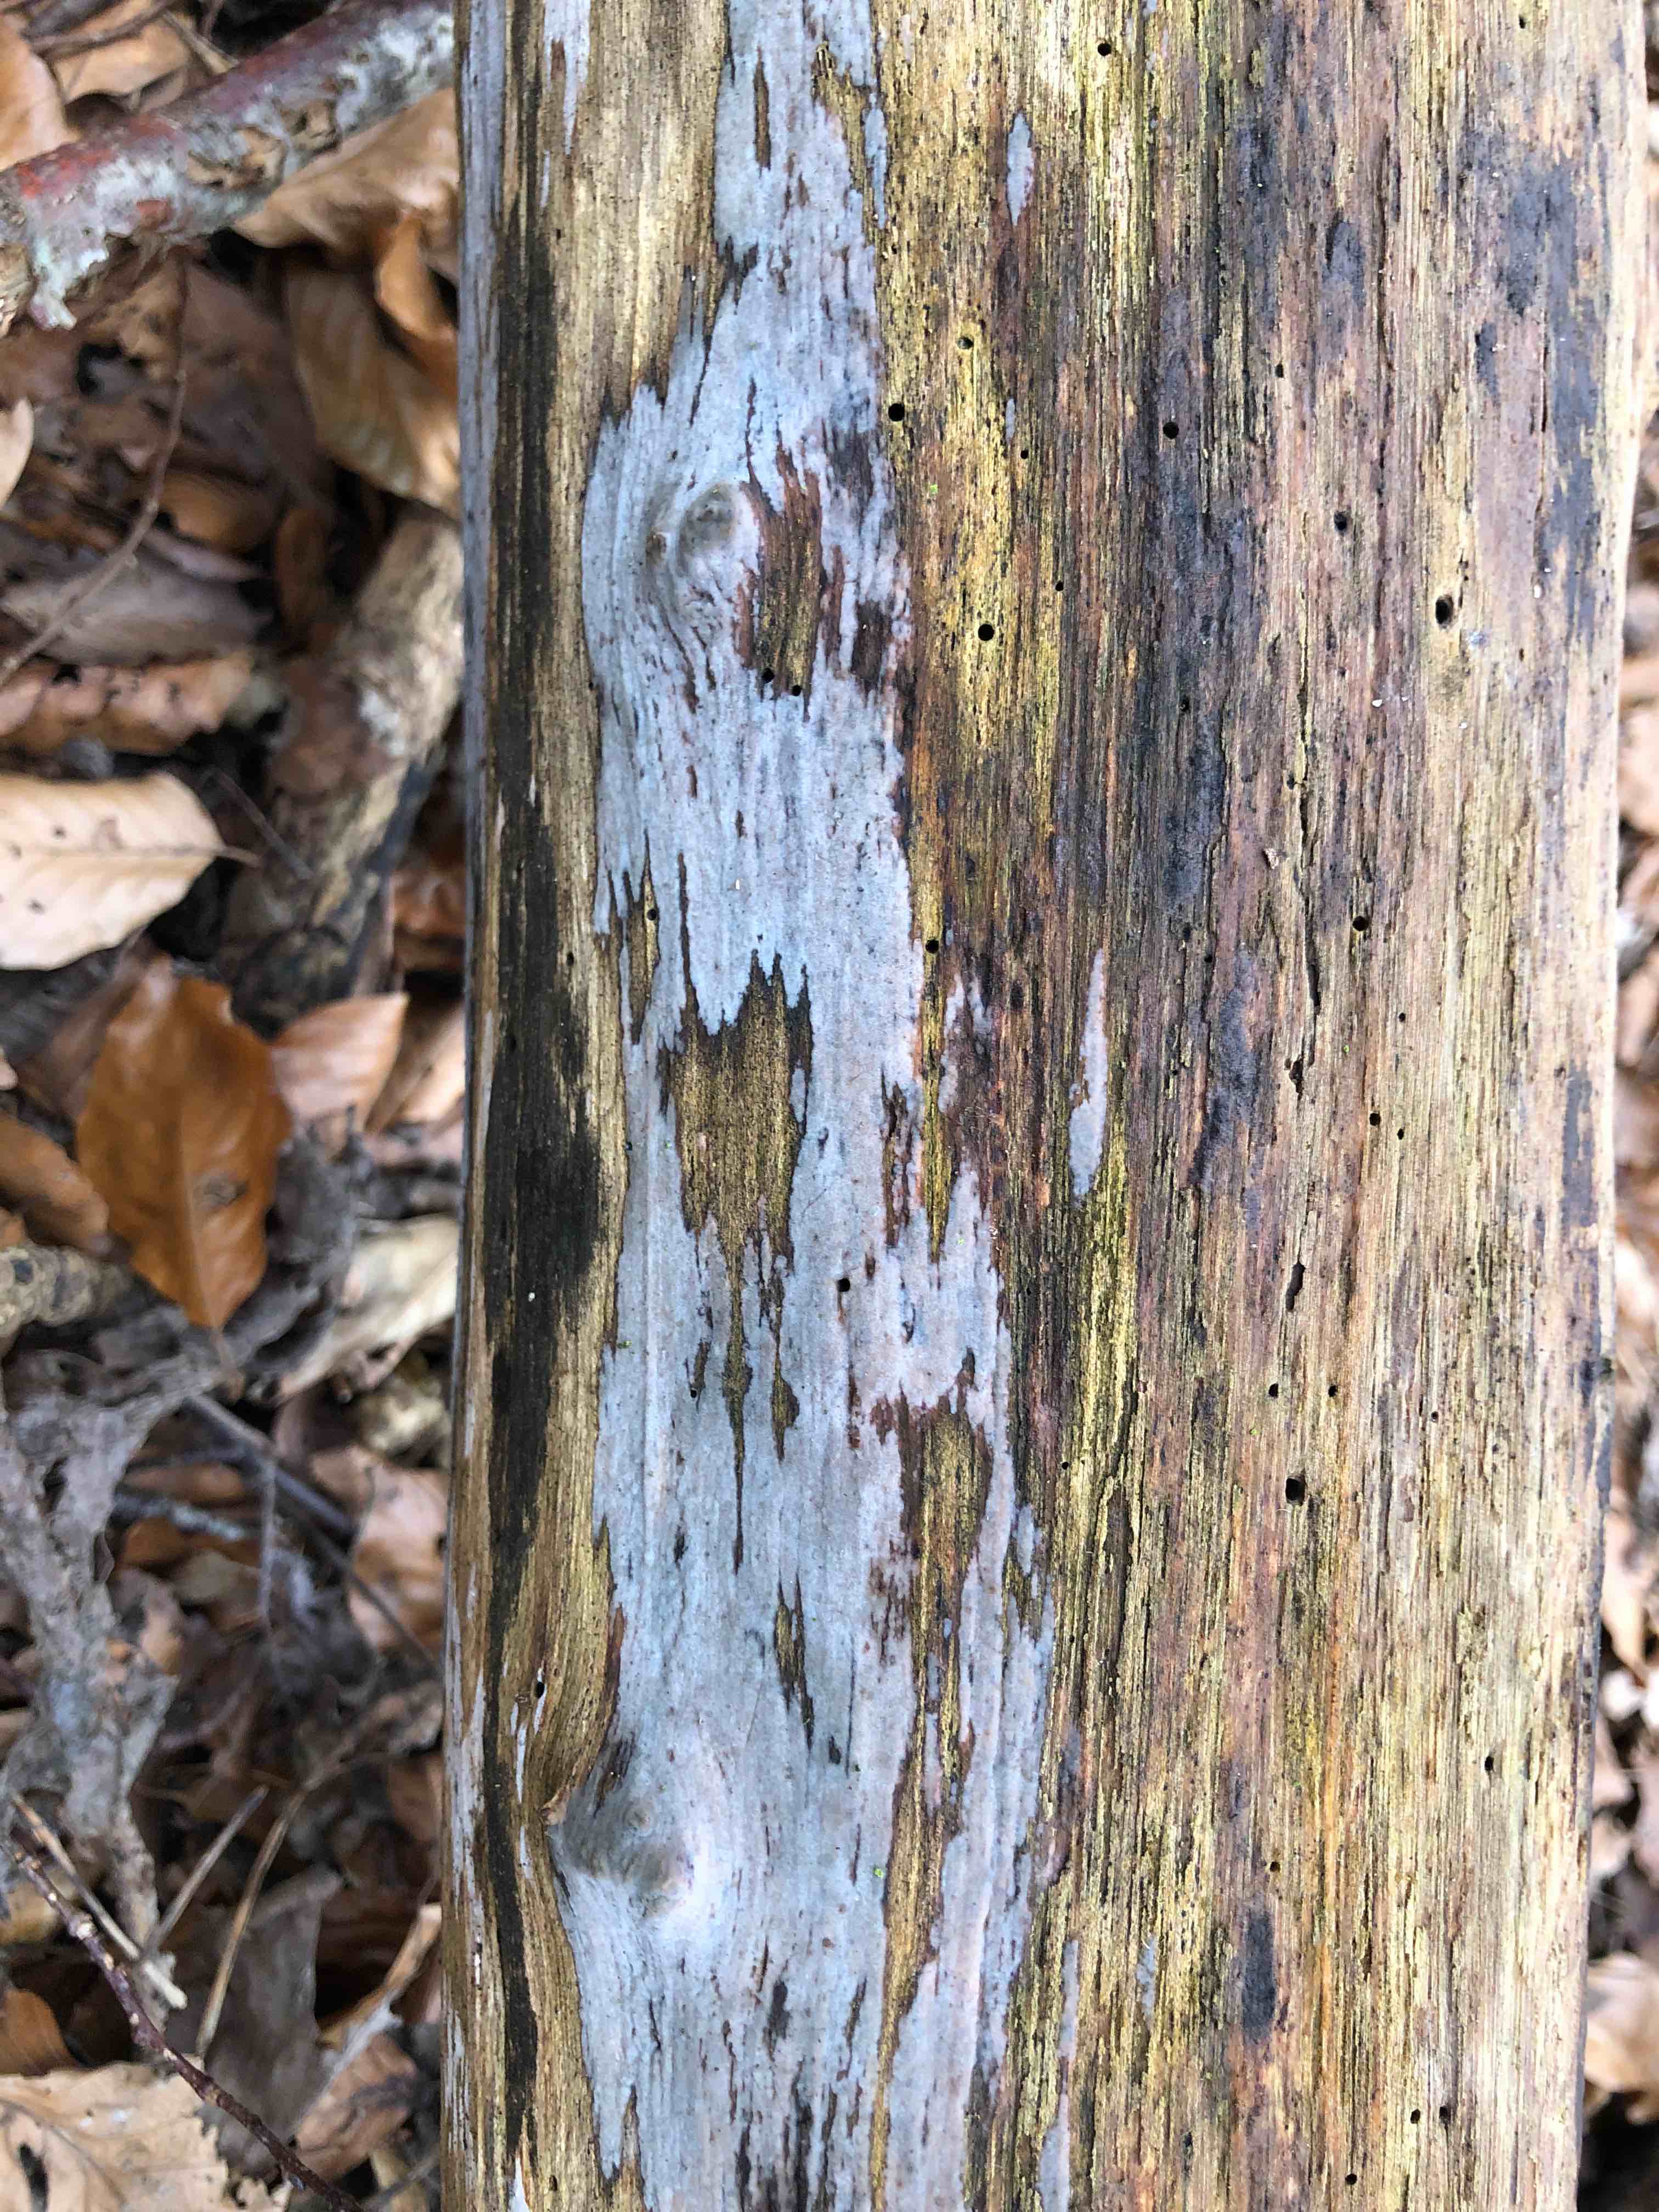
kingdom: Fungi
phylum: Basidiomycota
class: Tremellomycetes
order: Tremellales
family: Exidiaceae
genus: Exidiopsis
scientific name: Exidiopsis effusa
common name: smuk bævrehinde
